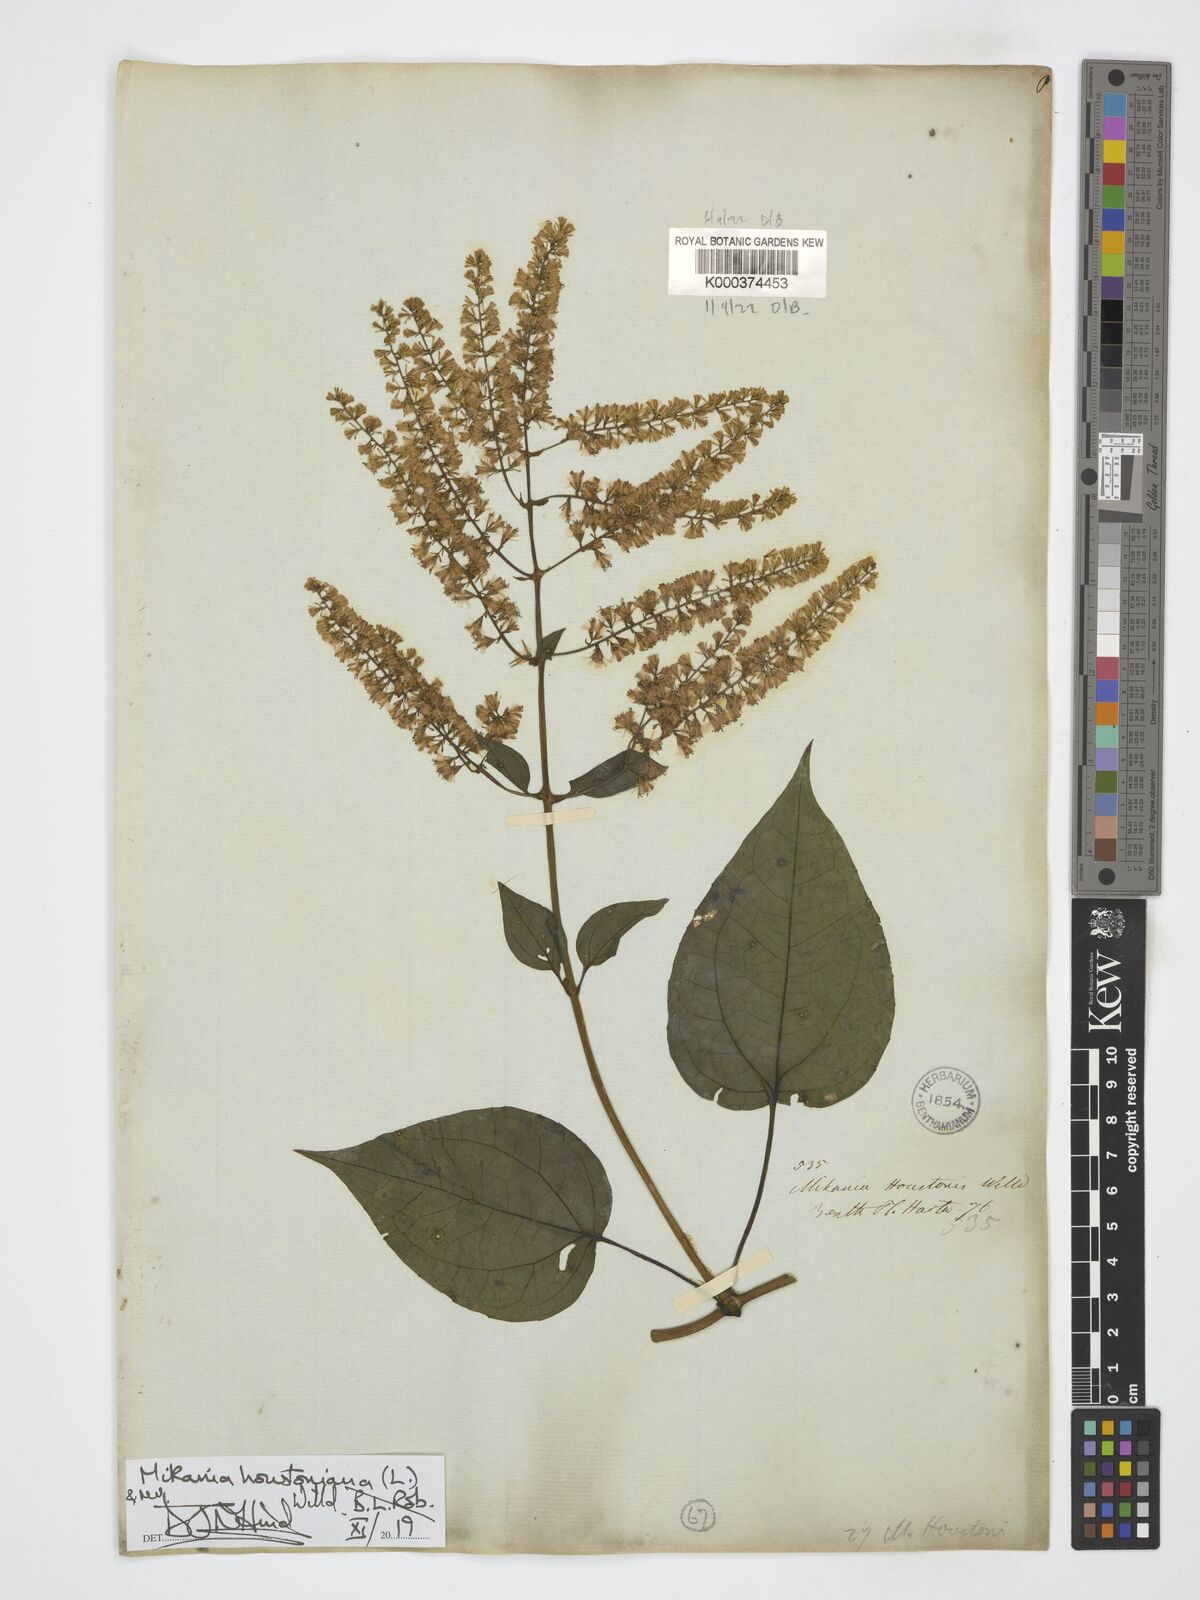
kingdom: Plantae
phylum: Tracheophyta
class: Magnoliopsida
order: Asterales
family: Asteraceae
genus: Mikania
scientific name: Mikania houstoniana
